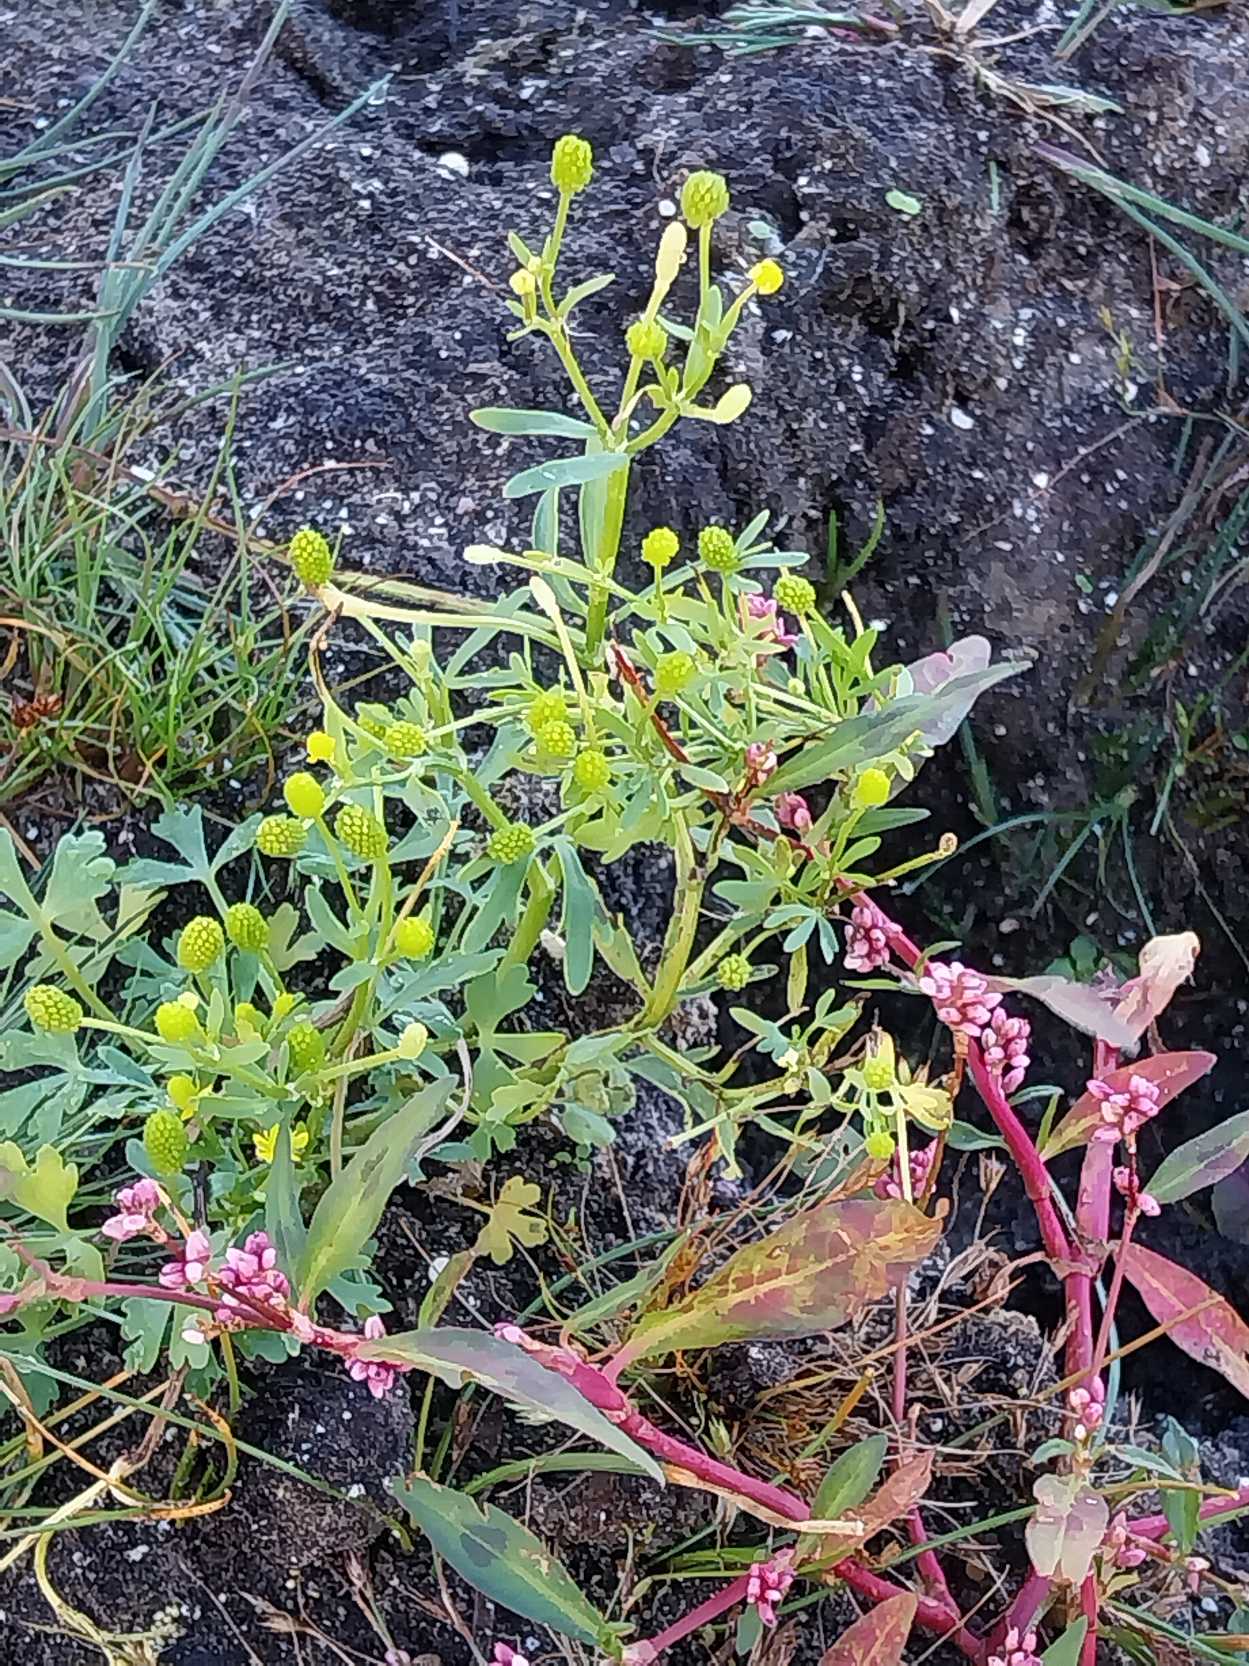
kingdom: Plantae
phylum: Tracheophyta
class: Magnoliopsida
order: Ranunculales
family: Ranunculaceae
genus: Ranunculus
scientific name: Ranunculus sceleratus
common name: Tigger-ranunkel
